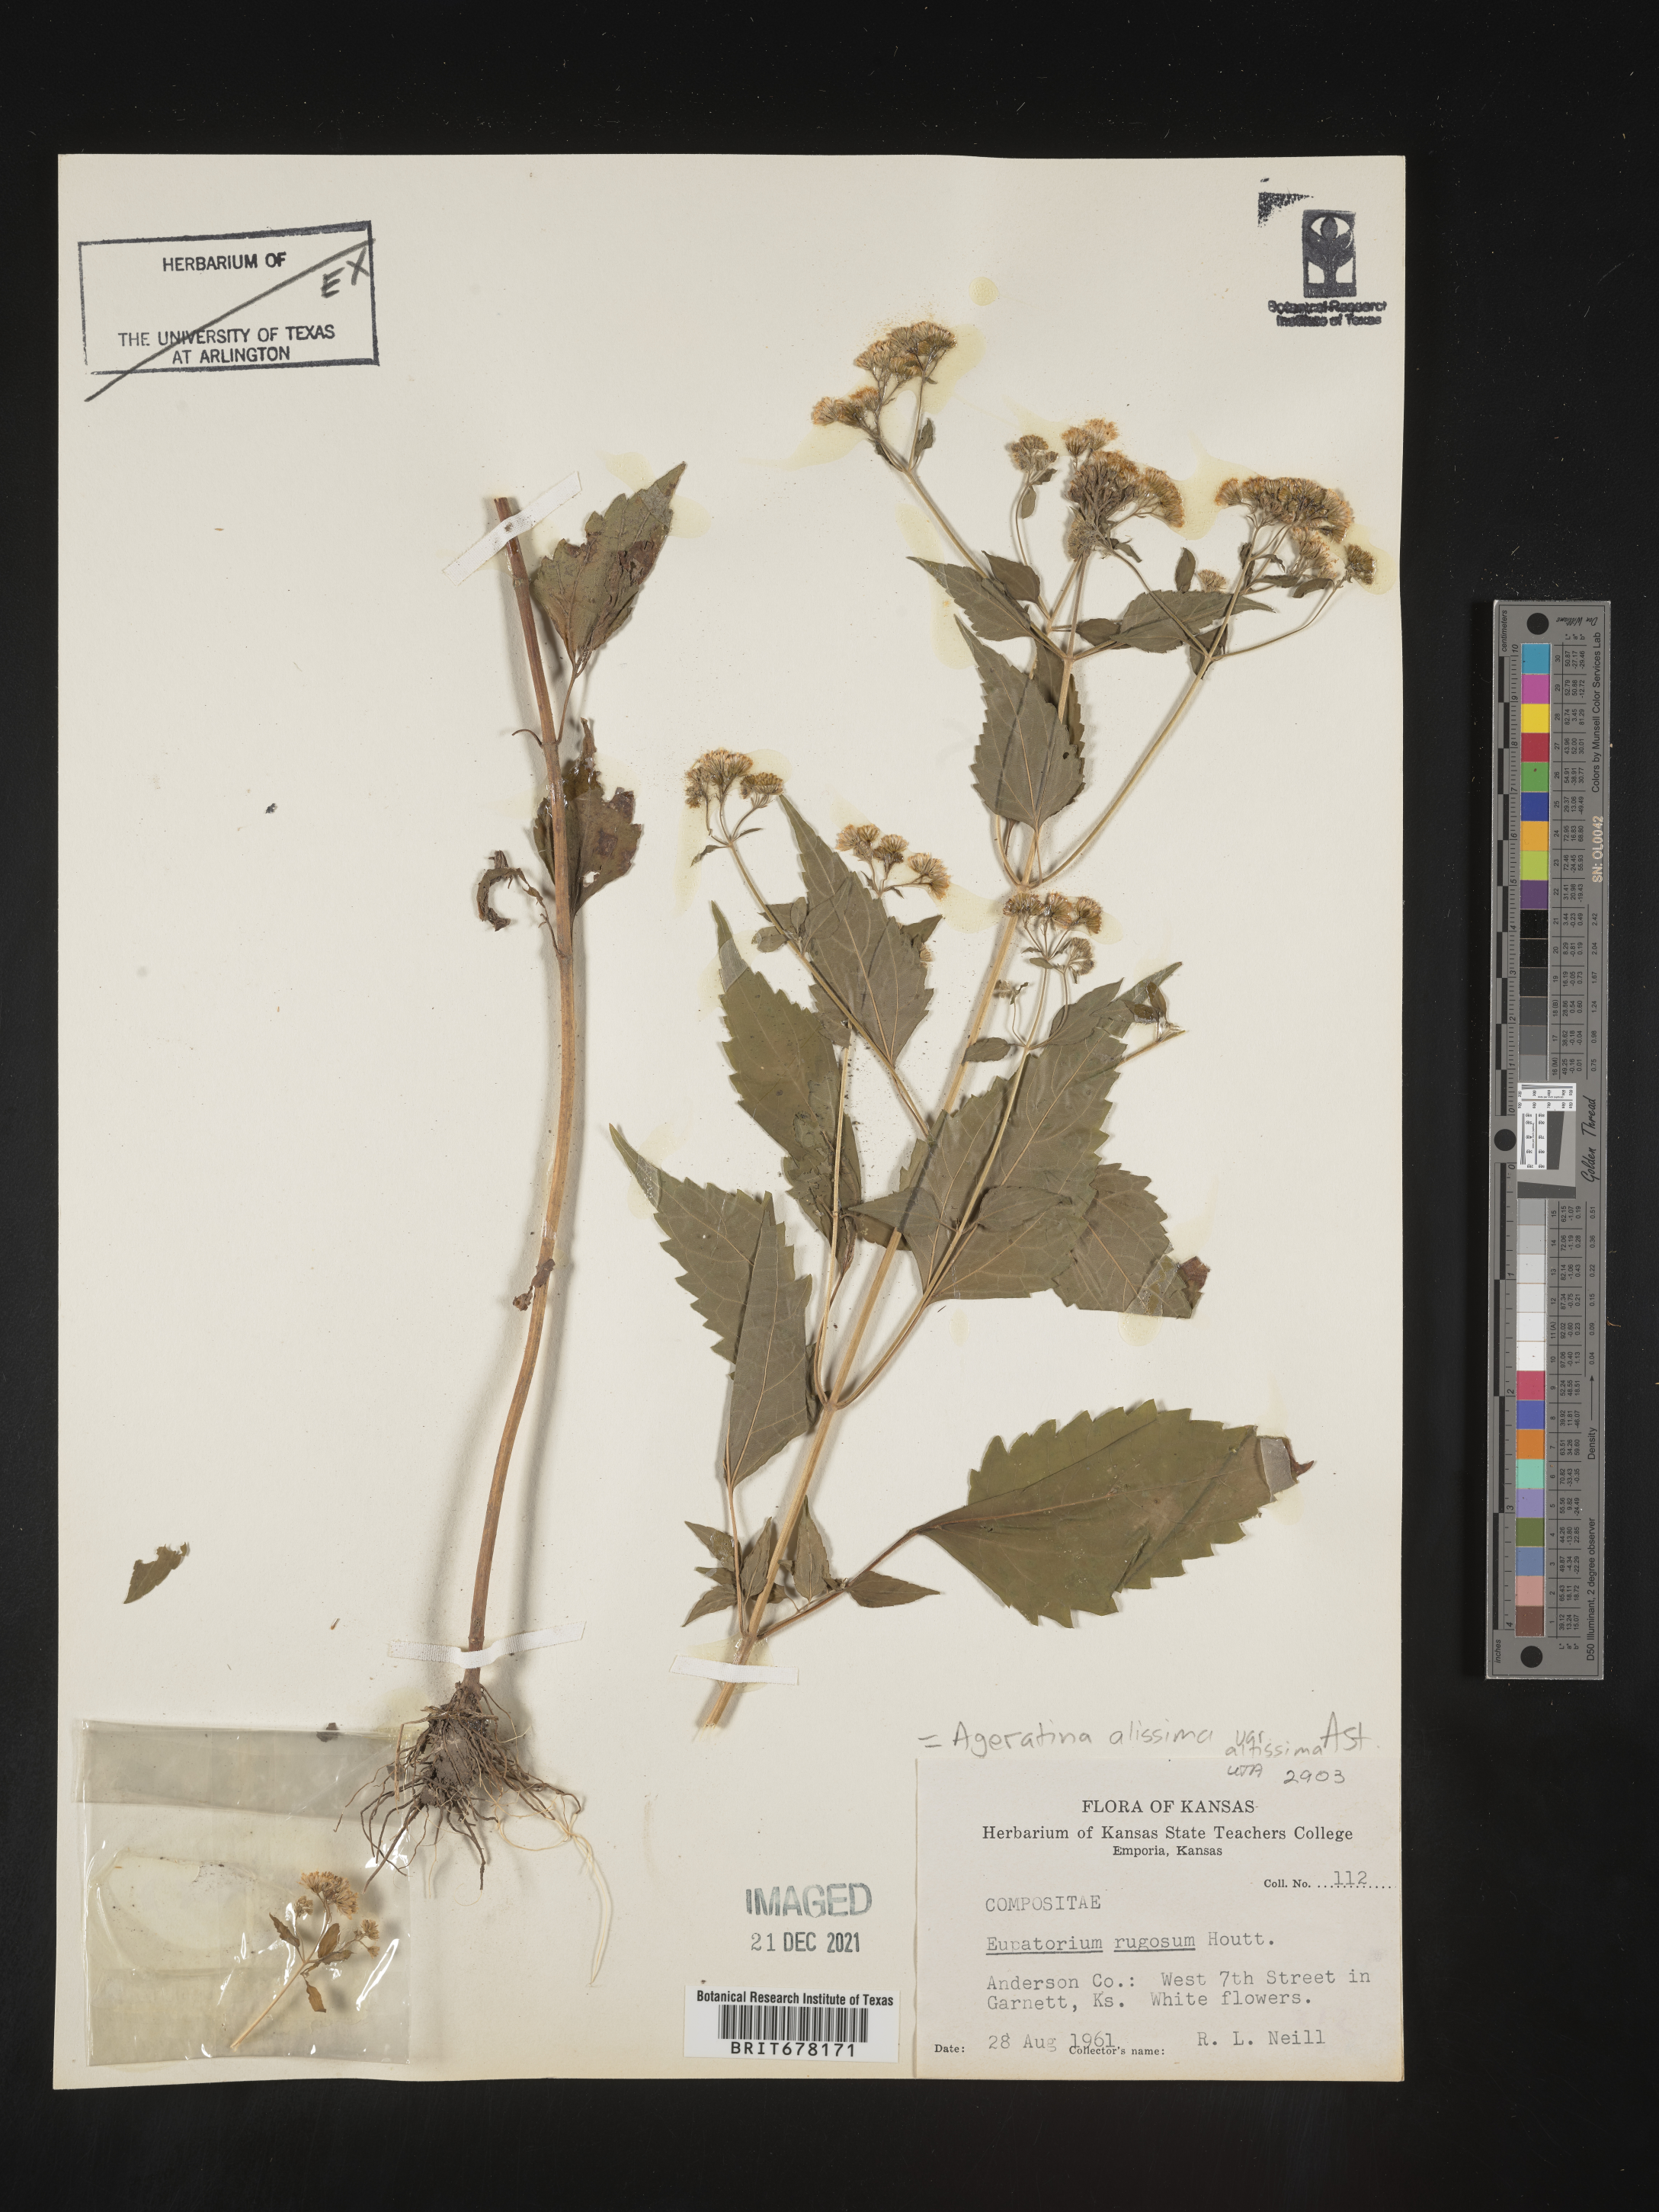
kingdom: Plantae
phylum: Tracheophyta
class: Magnoliopsida
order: Asterales
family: Asteraceae
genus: Eupatorium
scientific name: Eupatorium
